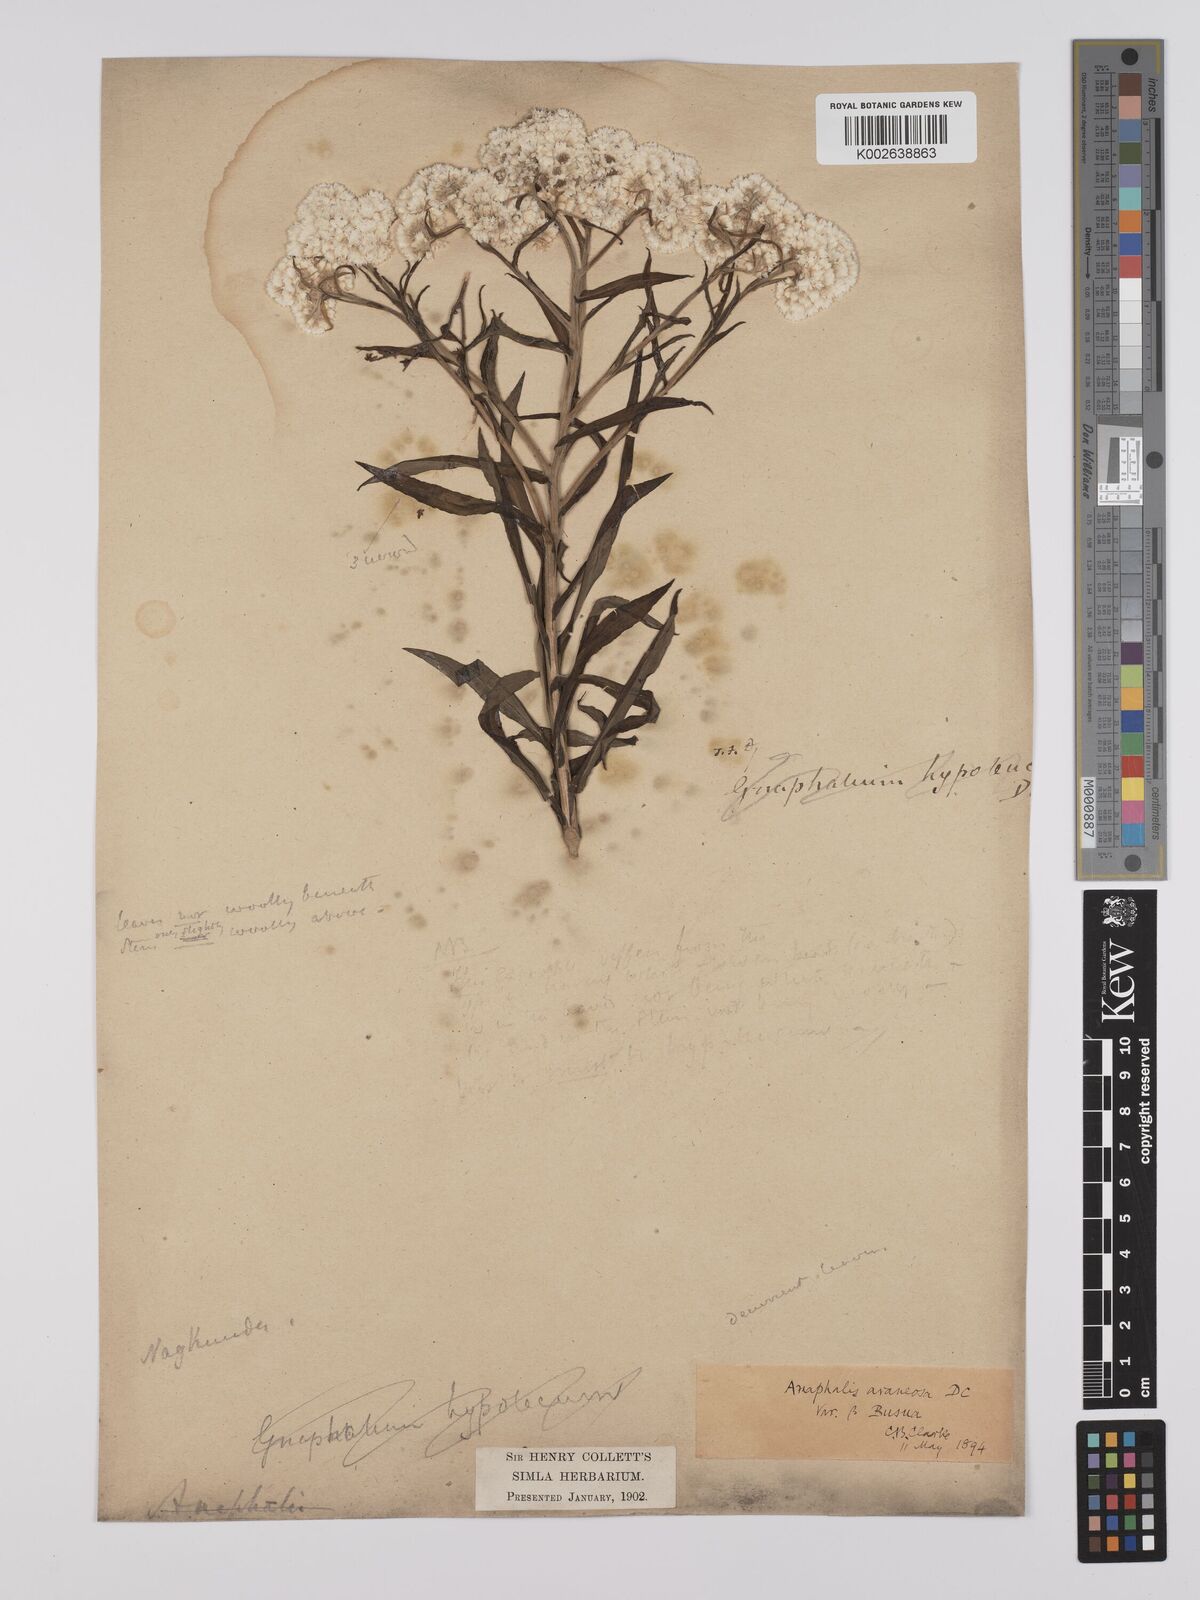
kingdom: Plantae
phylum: Tracheophyta
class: Magnoliopsida
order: Asterales
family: Asteraceae
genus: Anaphalis
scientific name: Anaphalis busua
